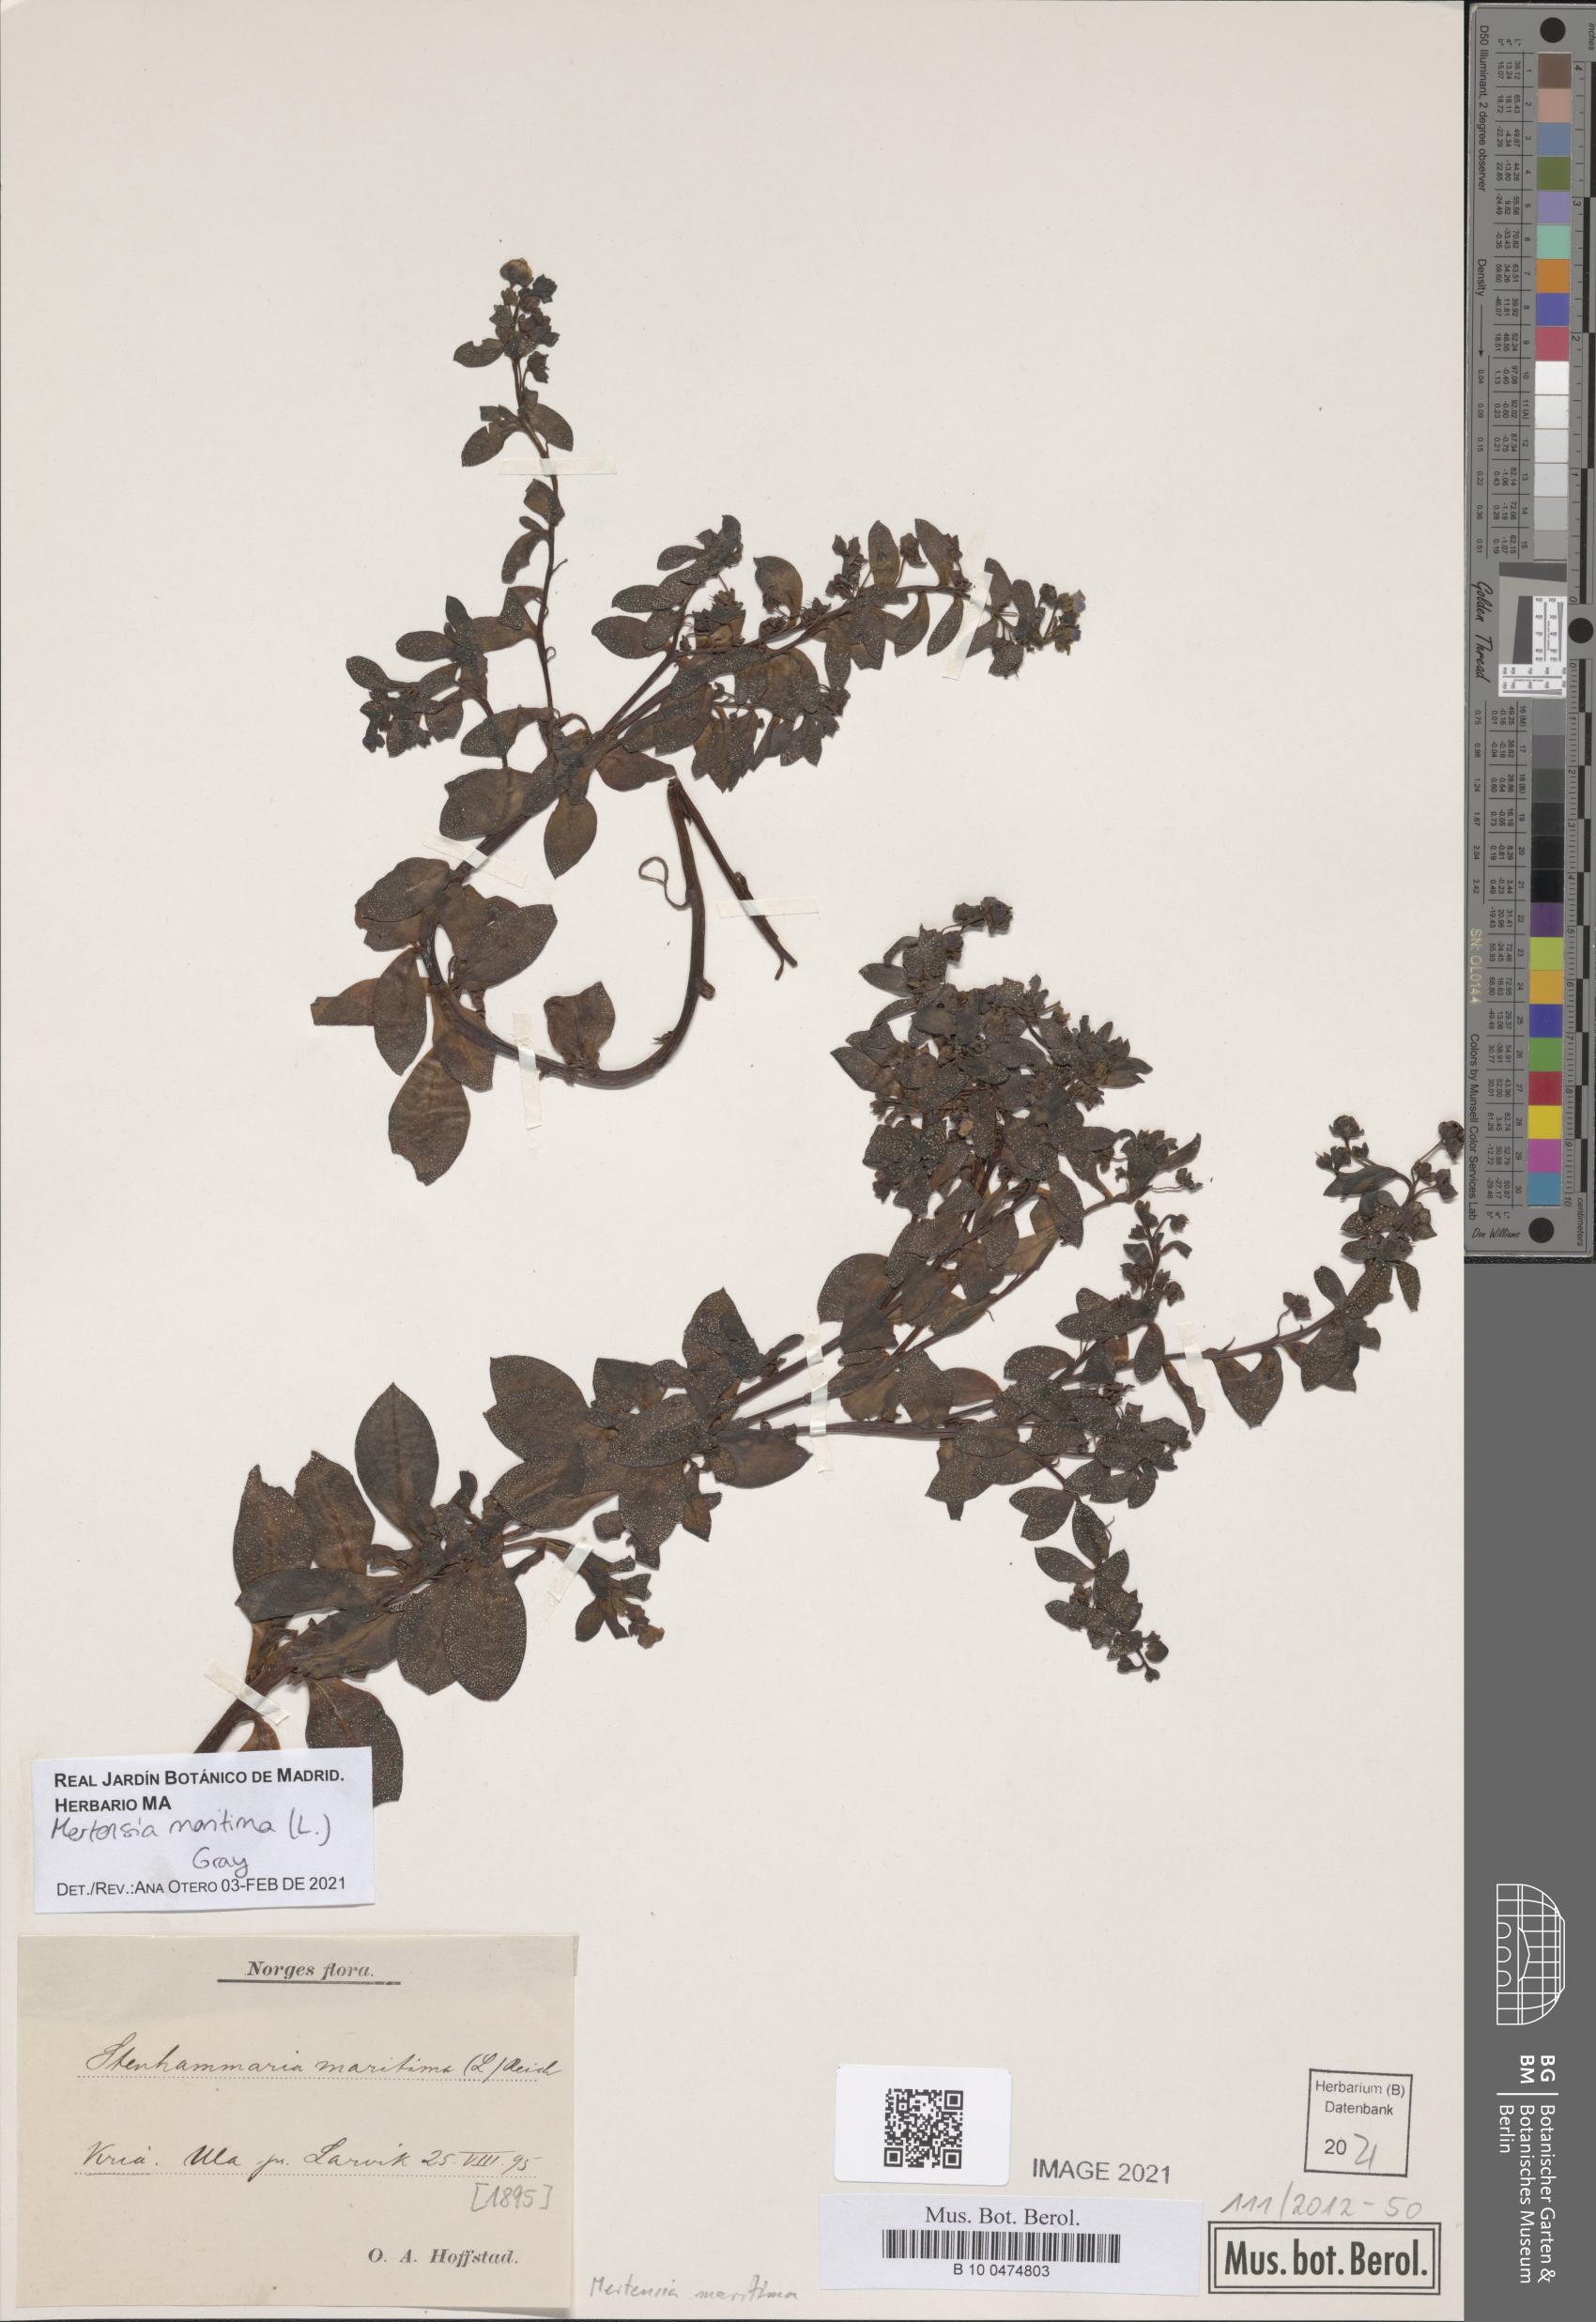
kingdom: Plantae
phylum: Tracheophyta
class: Magnoliopsida
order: Boraginales
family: Boraginaceae
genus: Mertensia
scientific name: Mertensia maritima
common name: Oysterplant
